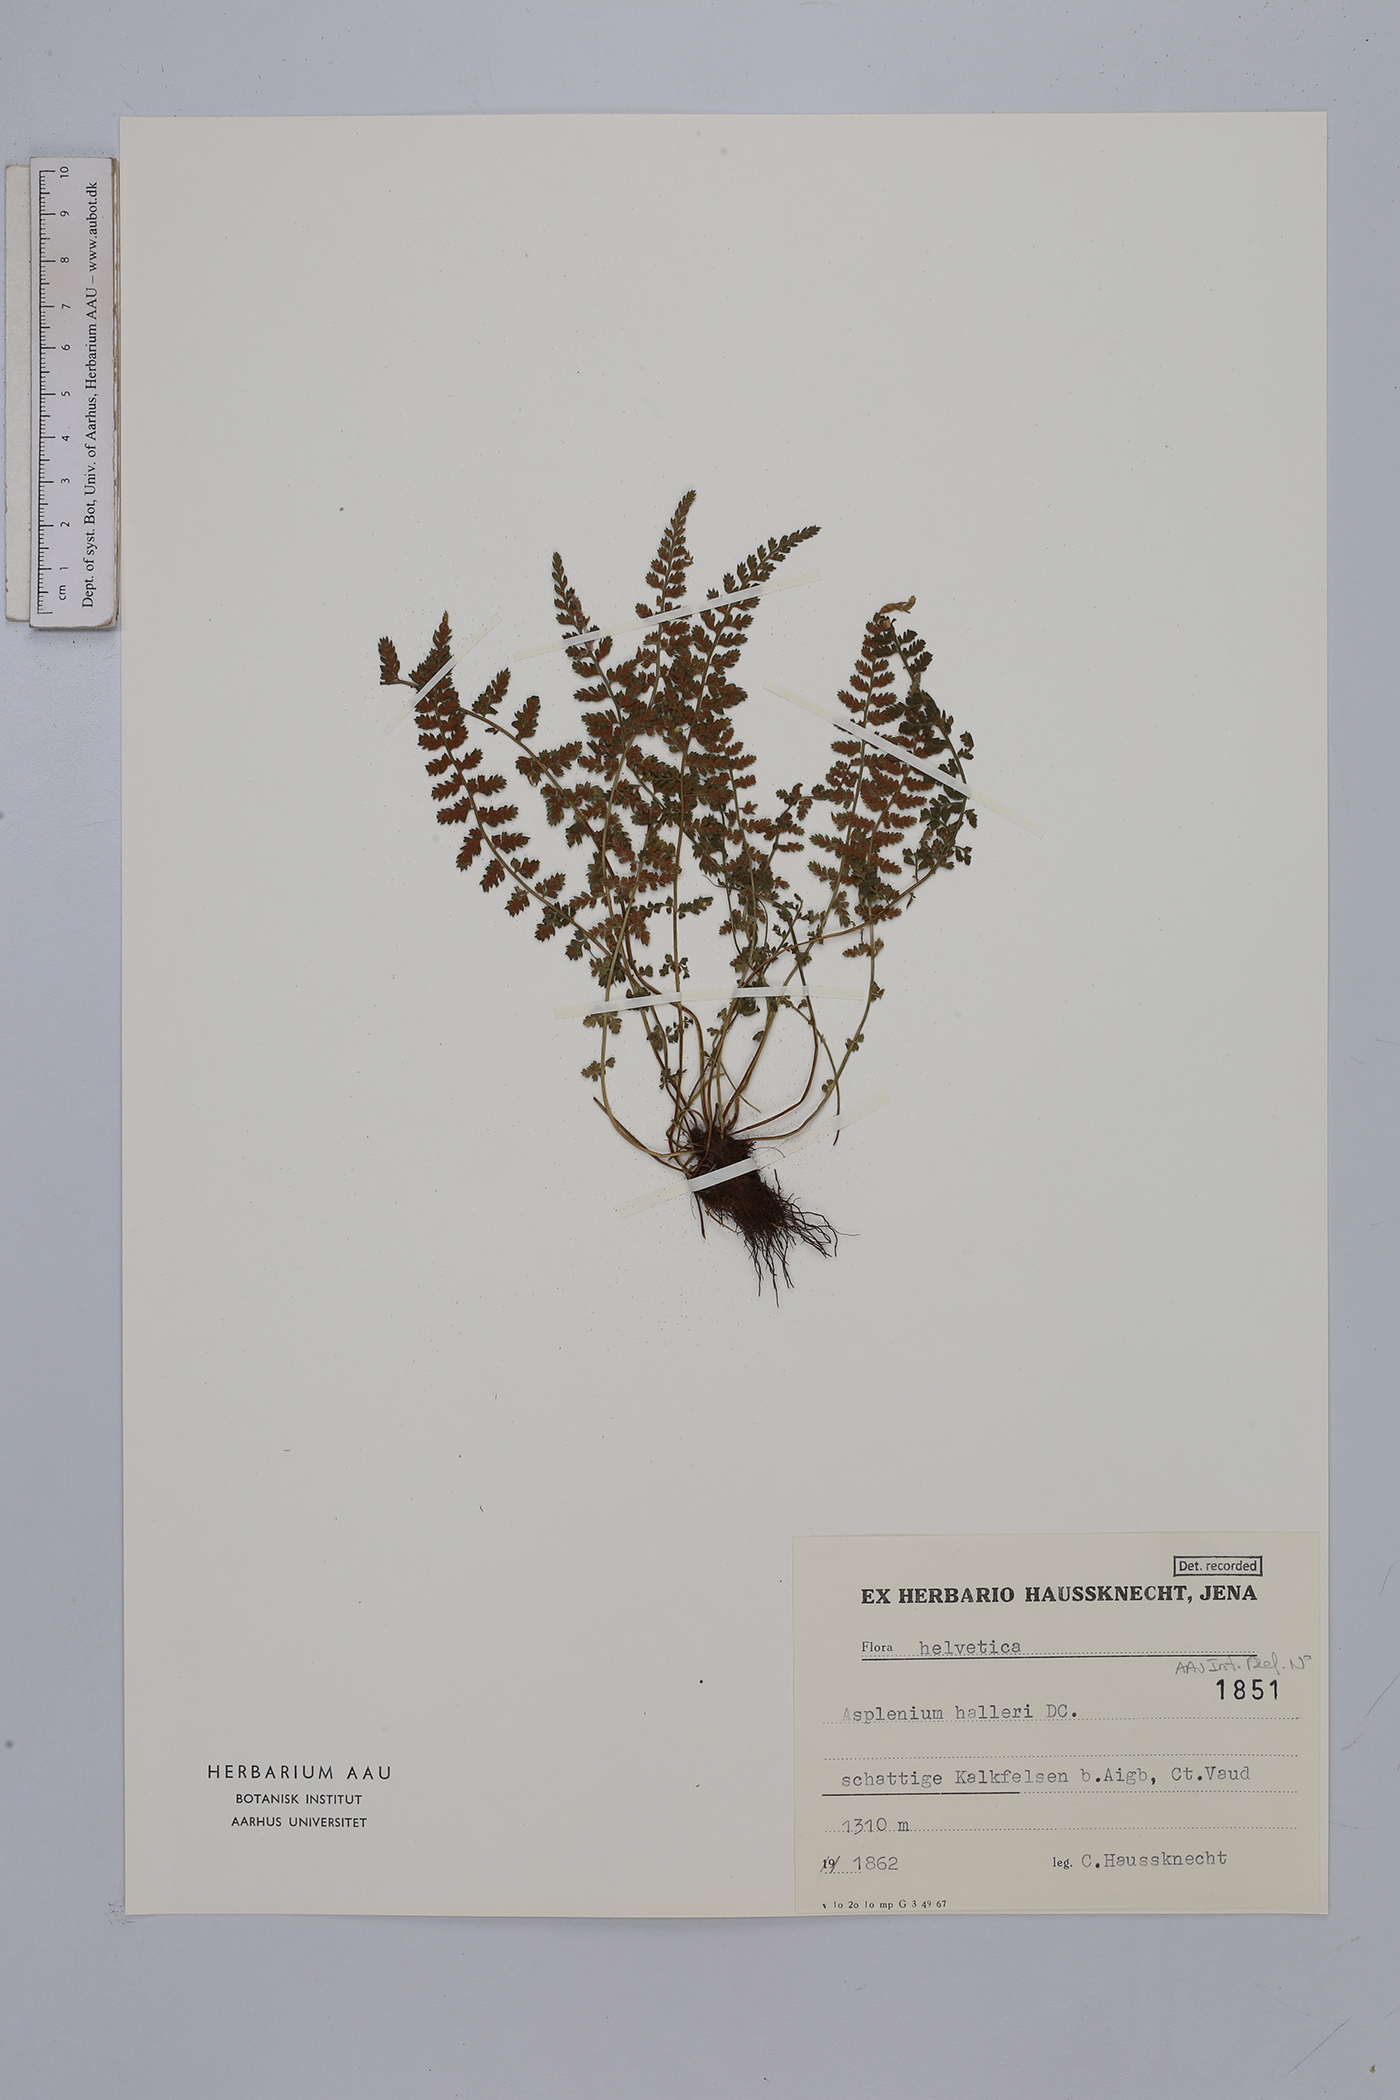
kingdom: Plantae
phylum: Tracheophyta
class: Polypodiopsida
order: Polypodiales
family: Aspleniaceae
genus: Asplenium
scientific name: Asplenium fontanum
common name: Fountain spleenwort
